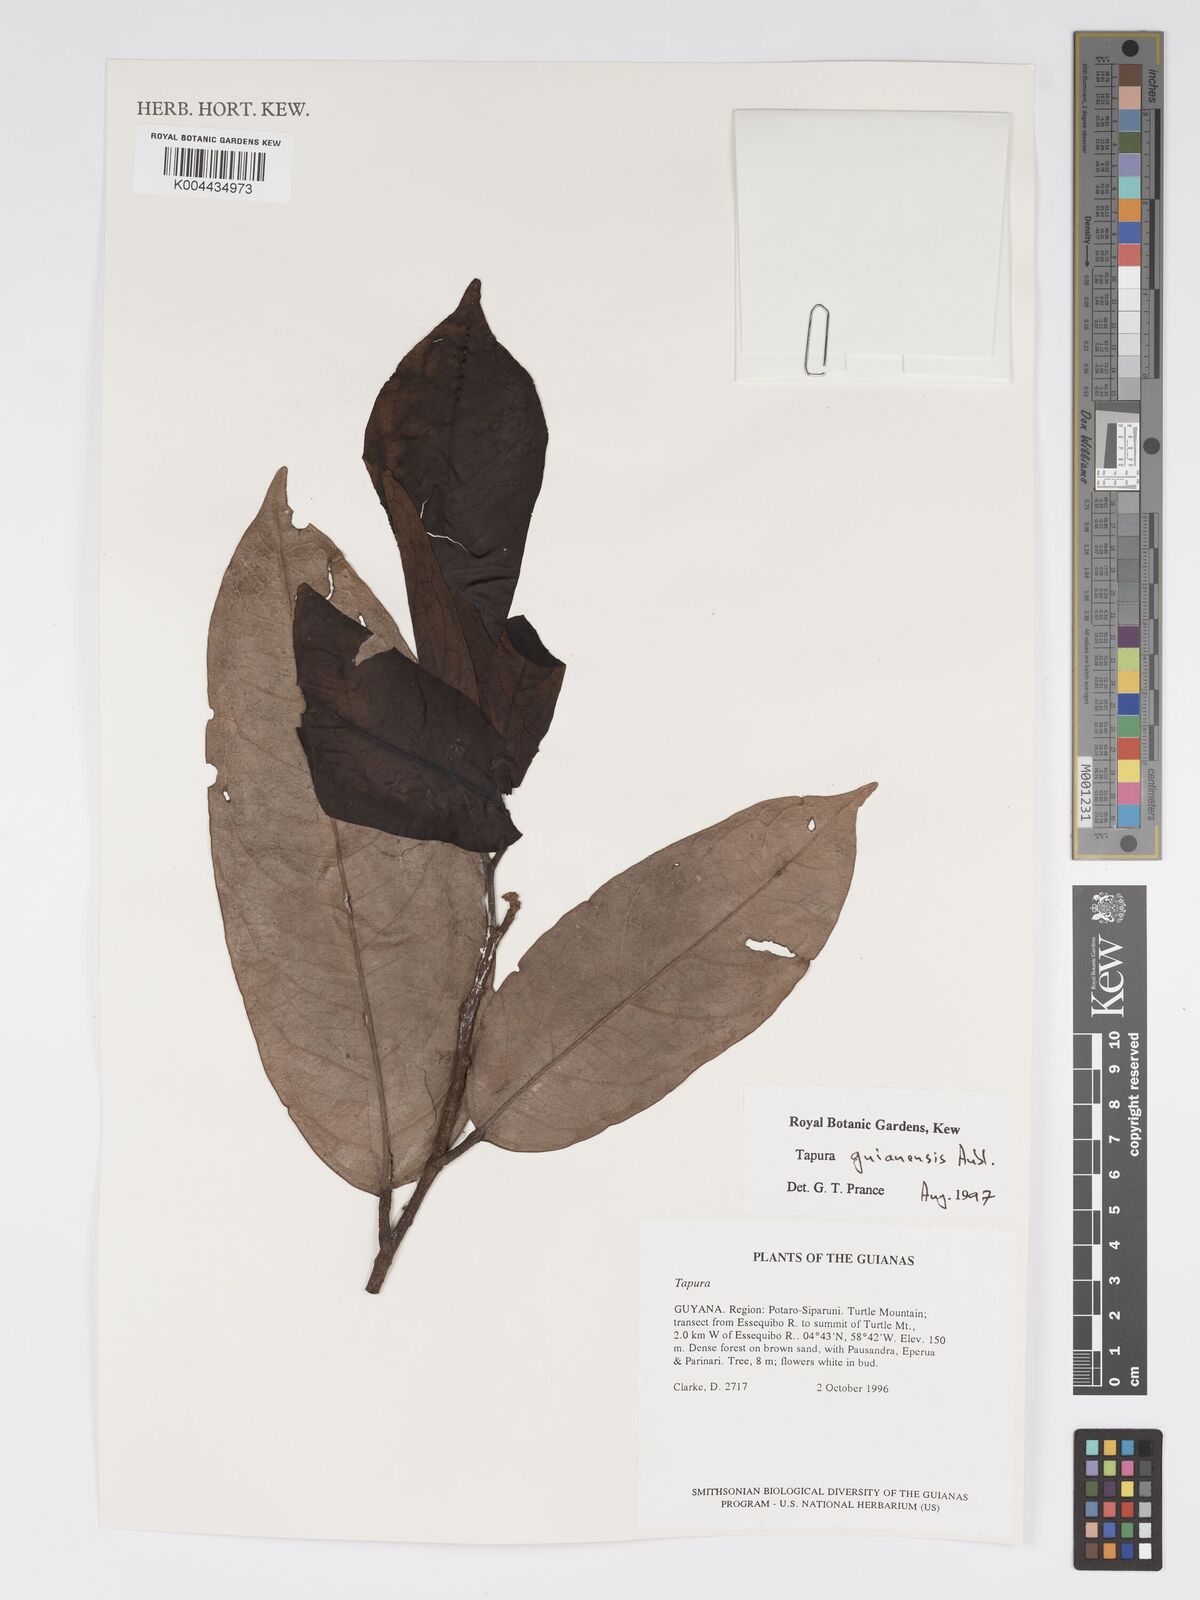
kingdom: Plantae
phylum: Tracheophyta
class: Magnoliopsida
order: Malpighiales
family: Dichapetalaceae
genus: Tapura
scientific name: Tapura guianensis
